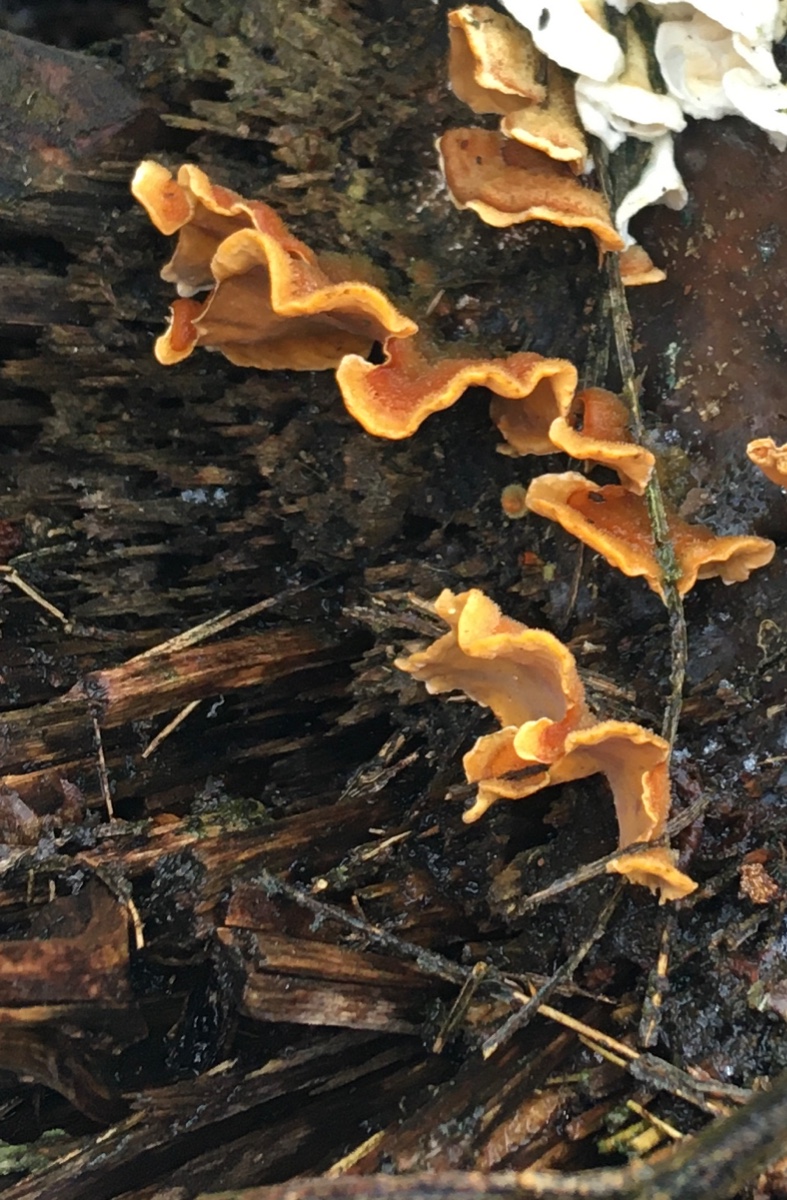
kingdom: Fungi
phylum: Basidiomycota
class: Agaricomycetes
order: Russulales
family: Stereaceae
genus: Stereum
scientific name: Stereum hirsutum
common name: håret lædersvamp
